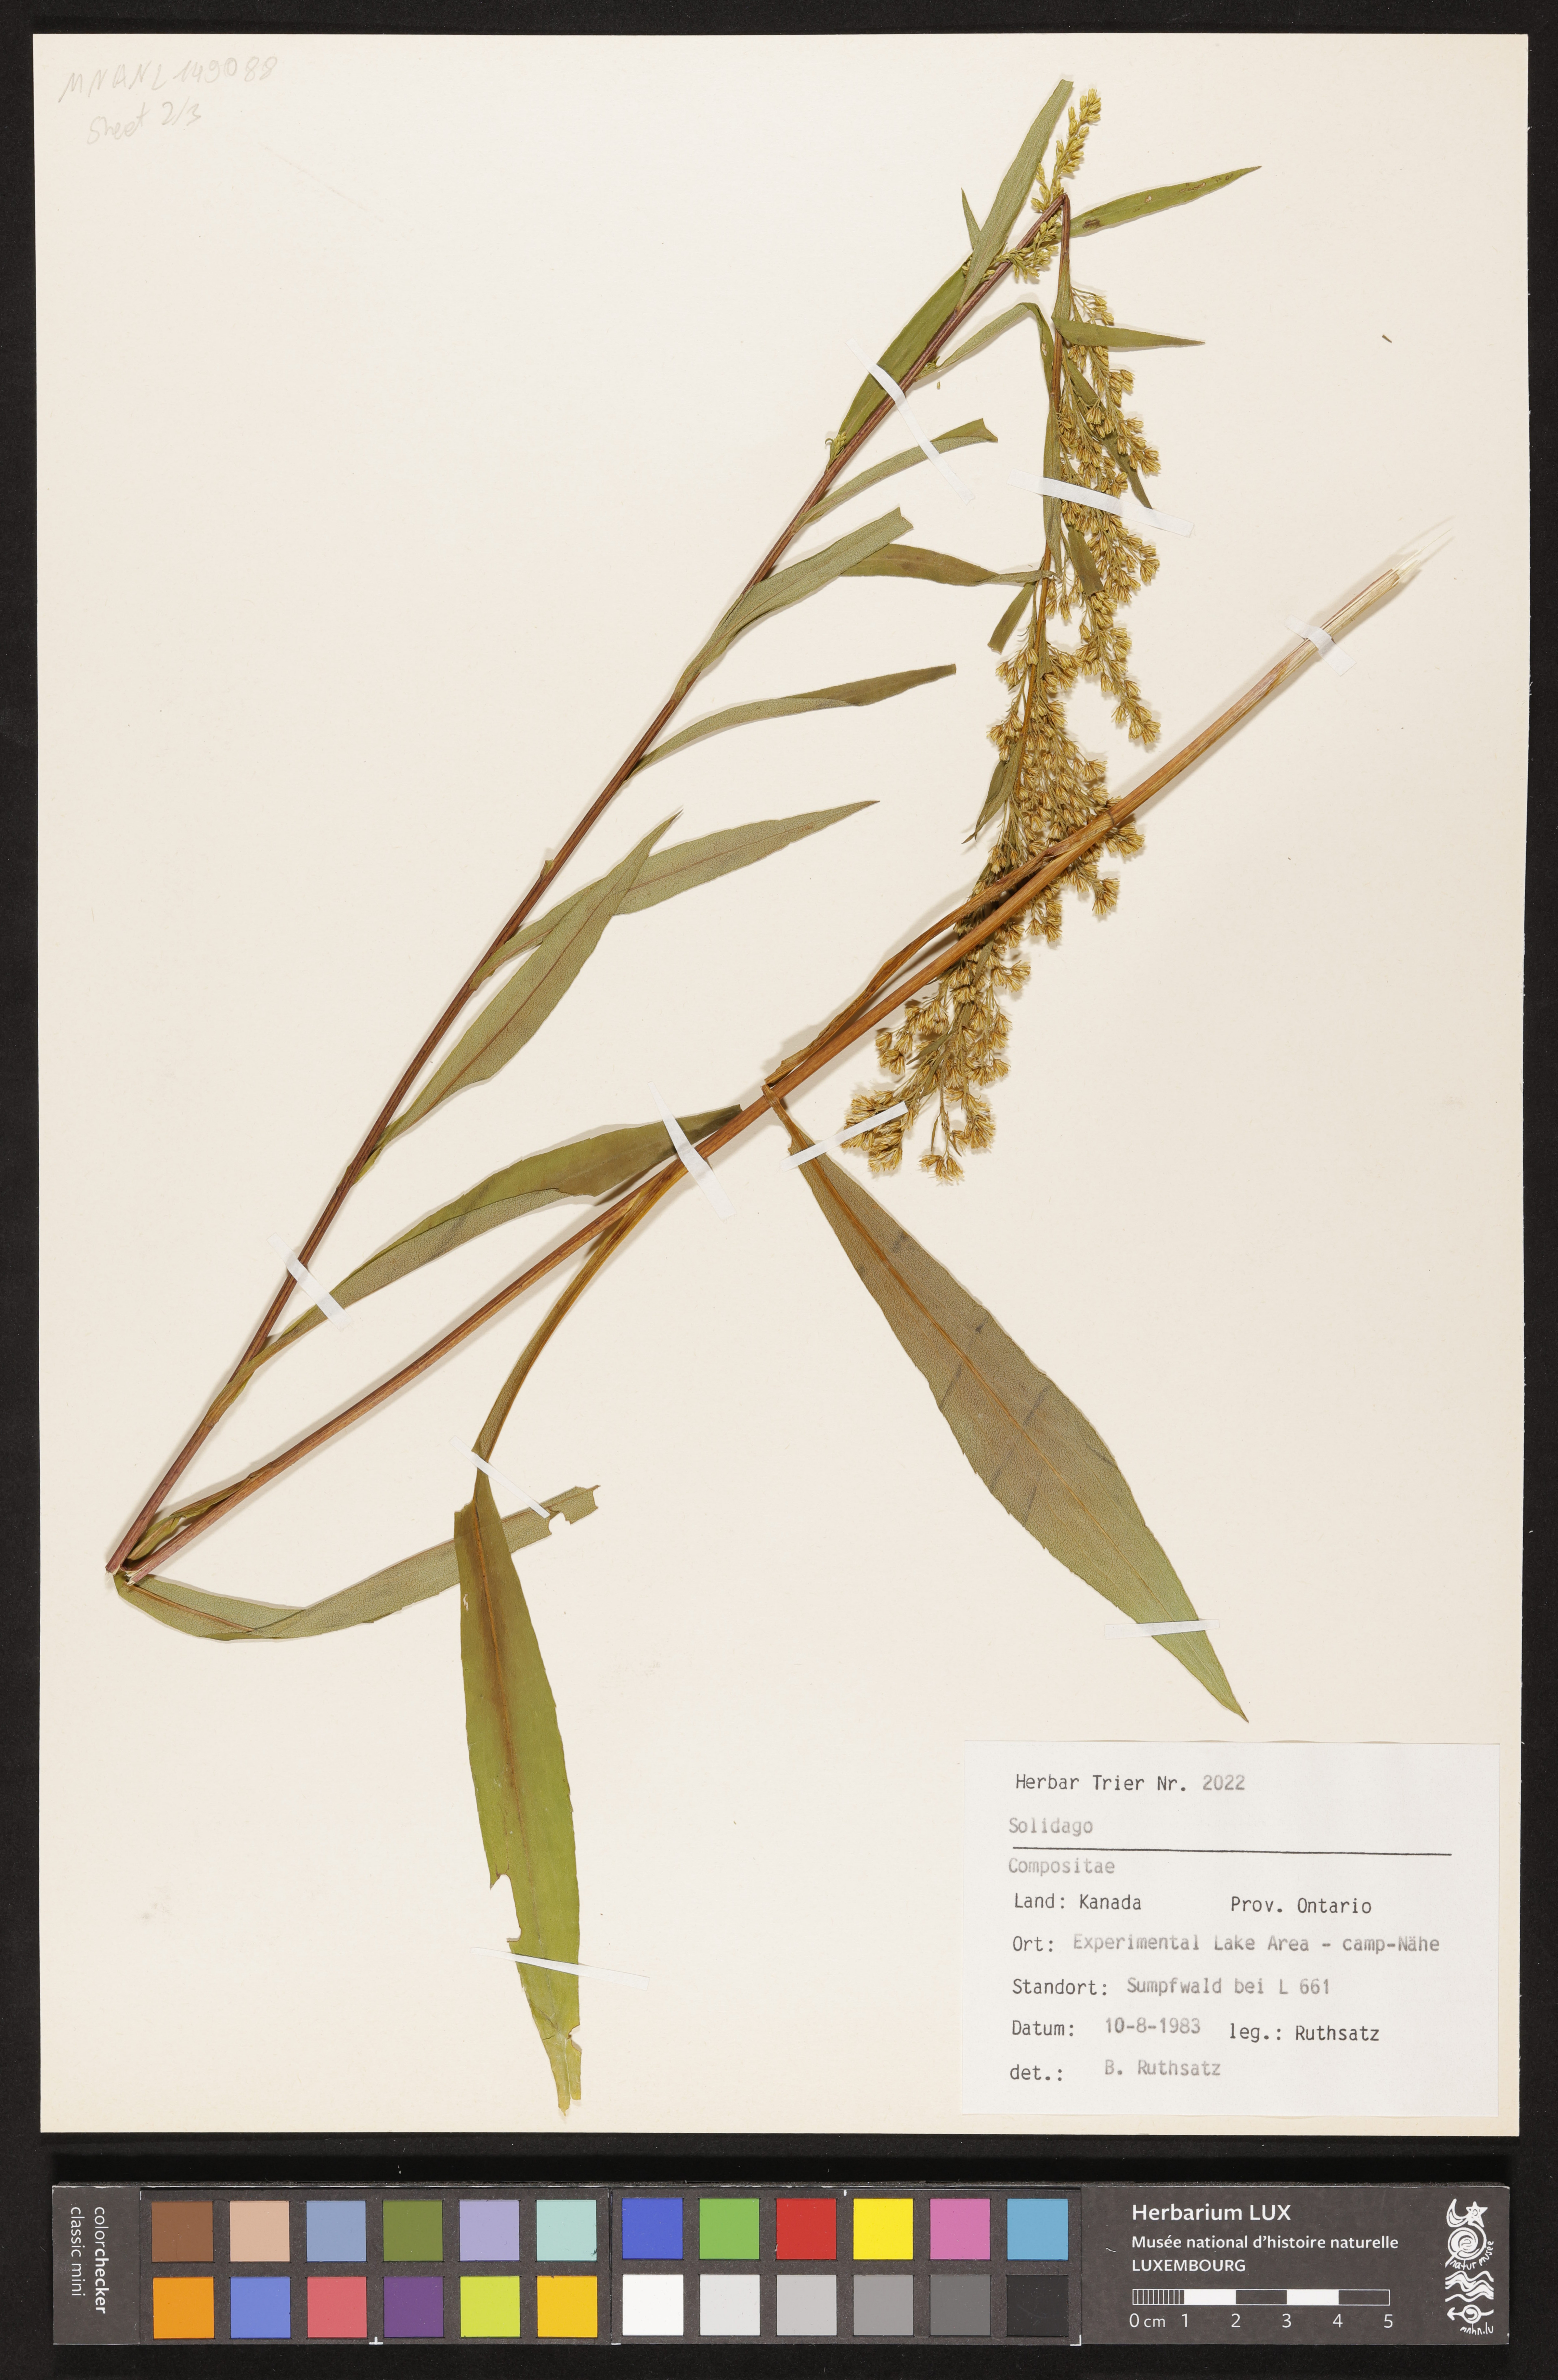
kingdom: Plantae
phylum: Tracheophyta
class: Magnoliopsida
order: Asterales
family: Asteraceae
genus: Solidago
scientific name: Solidago
